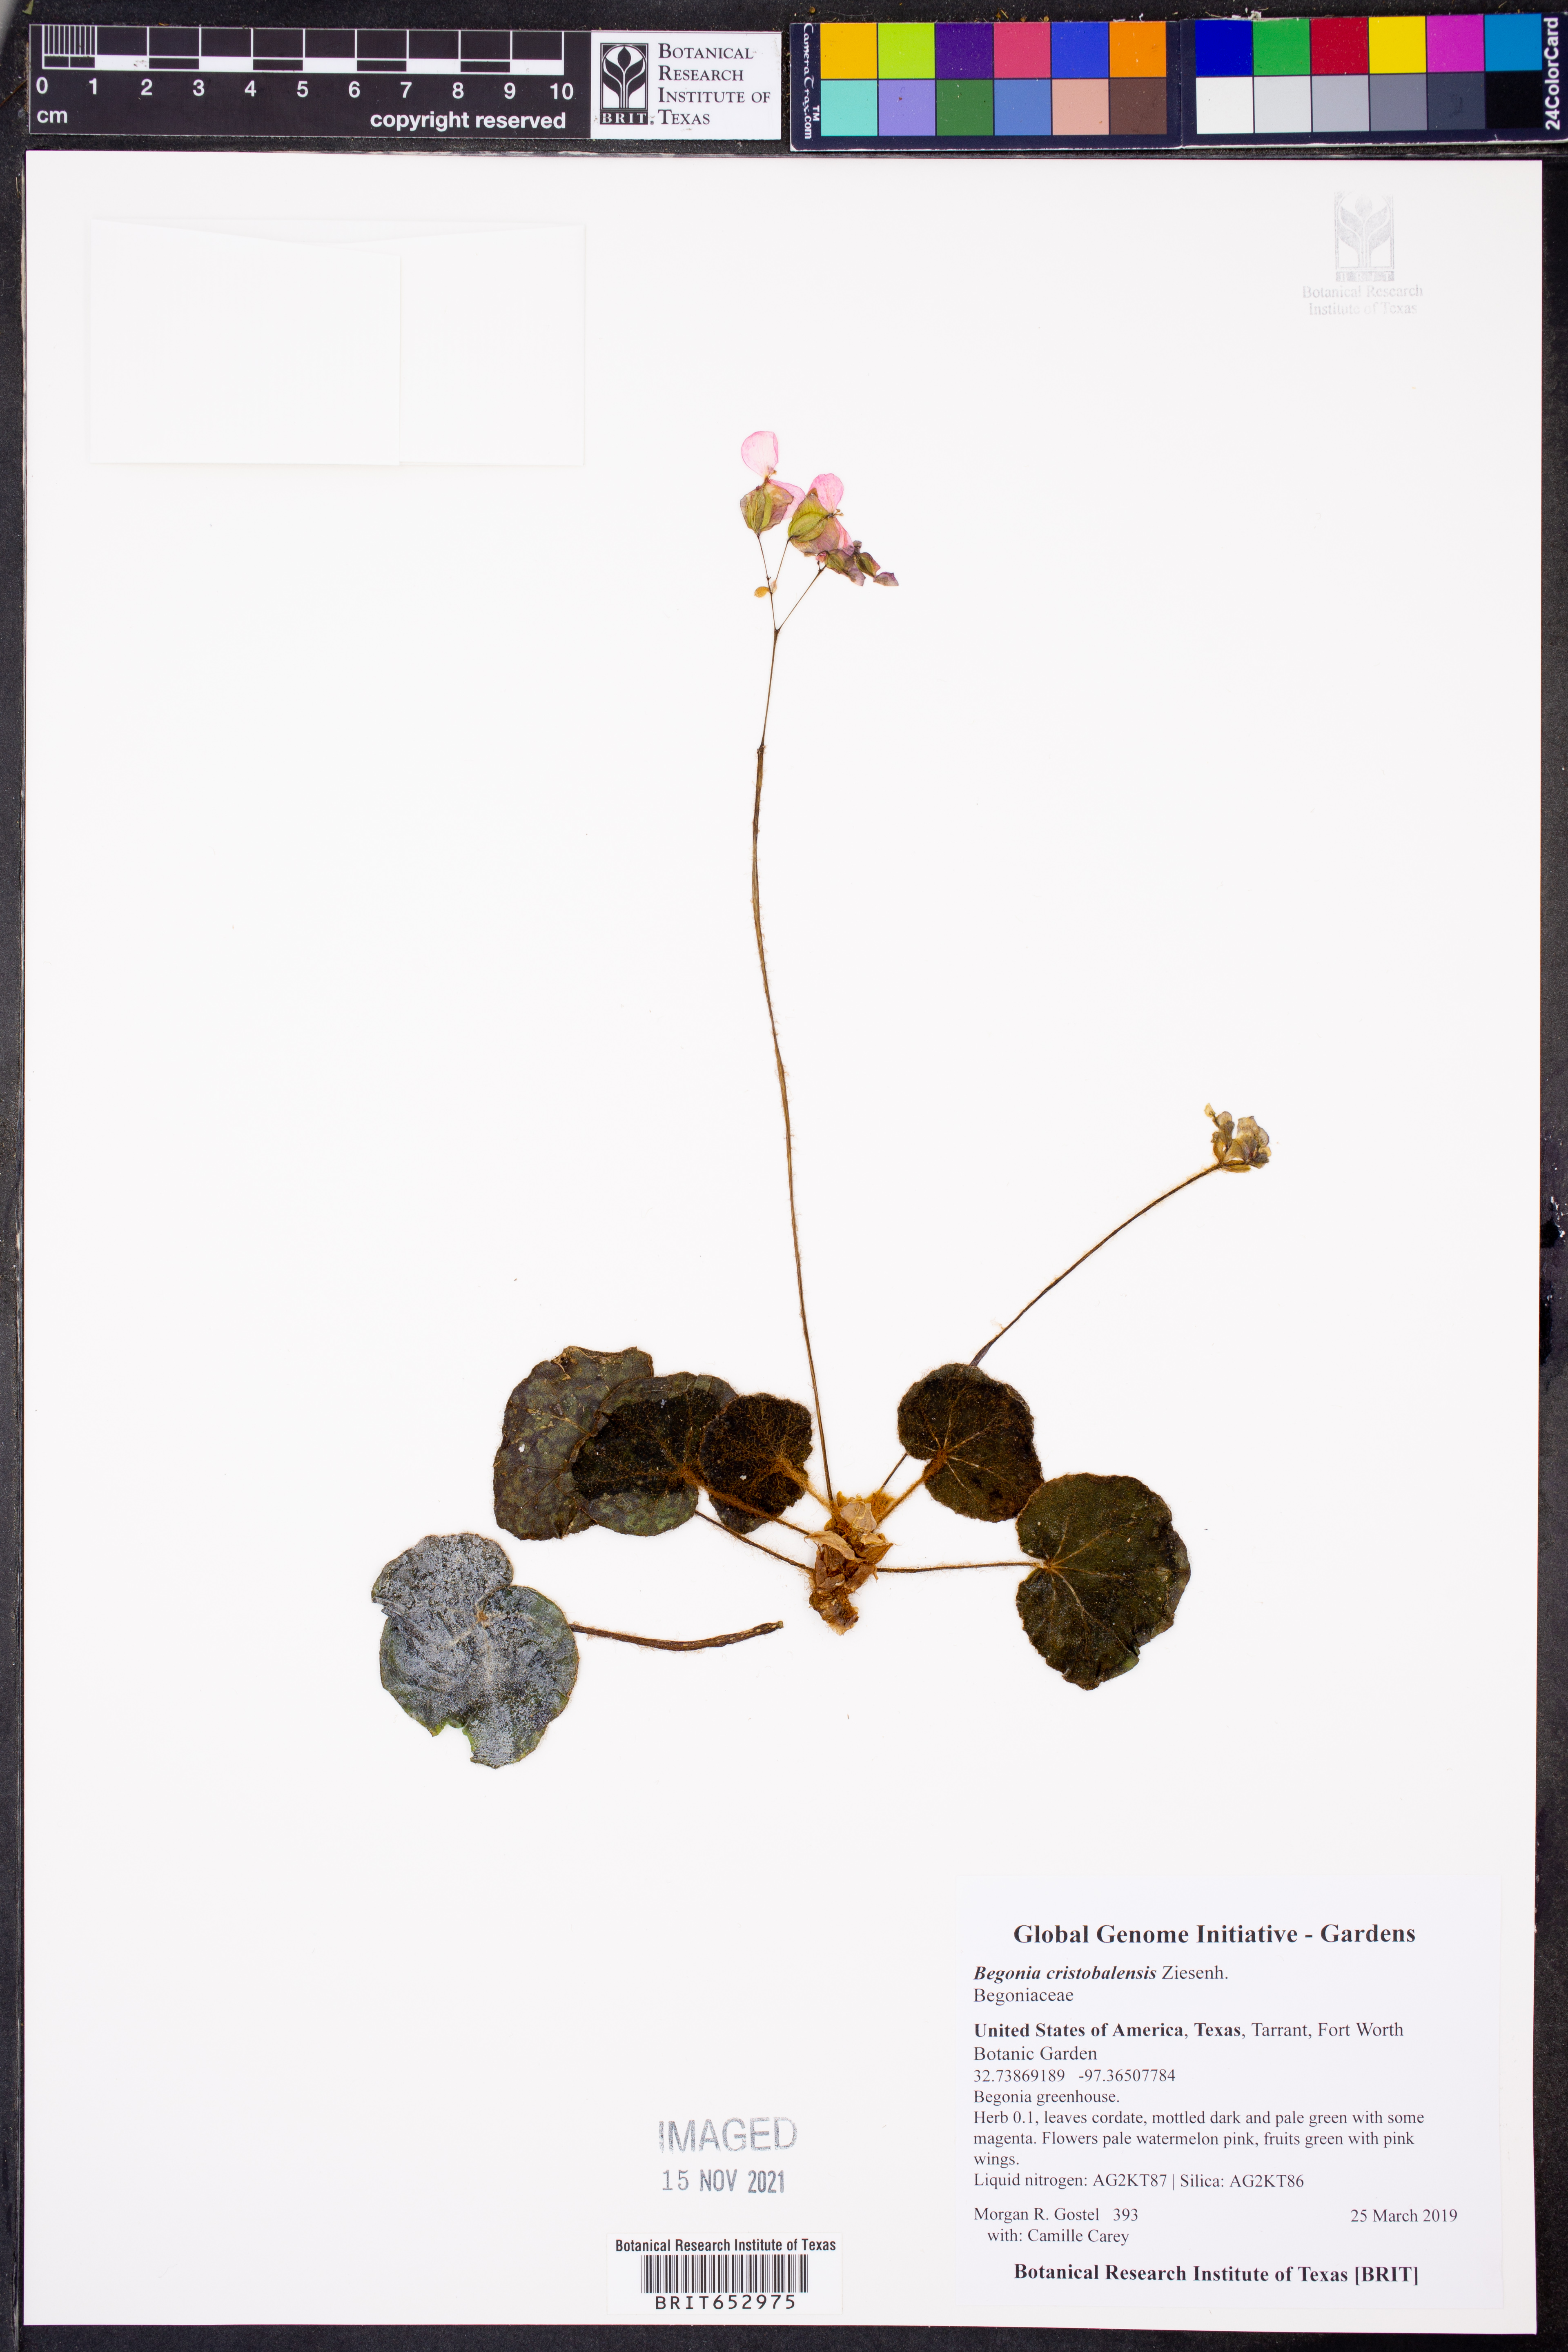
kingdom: Plantae
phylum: Tracheophyta
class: Magnoliopsida
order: Cucurbitales
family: Begoniaceae
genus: Begonia
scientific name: Begonia cristobalensis
